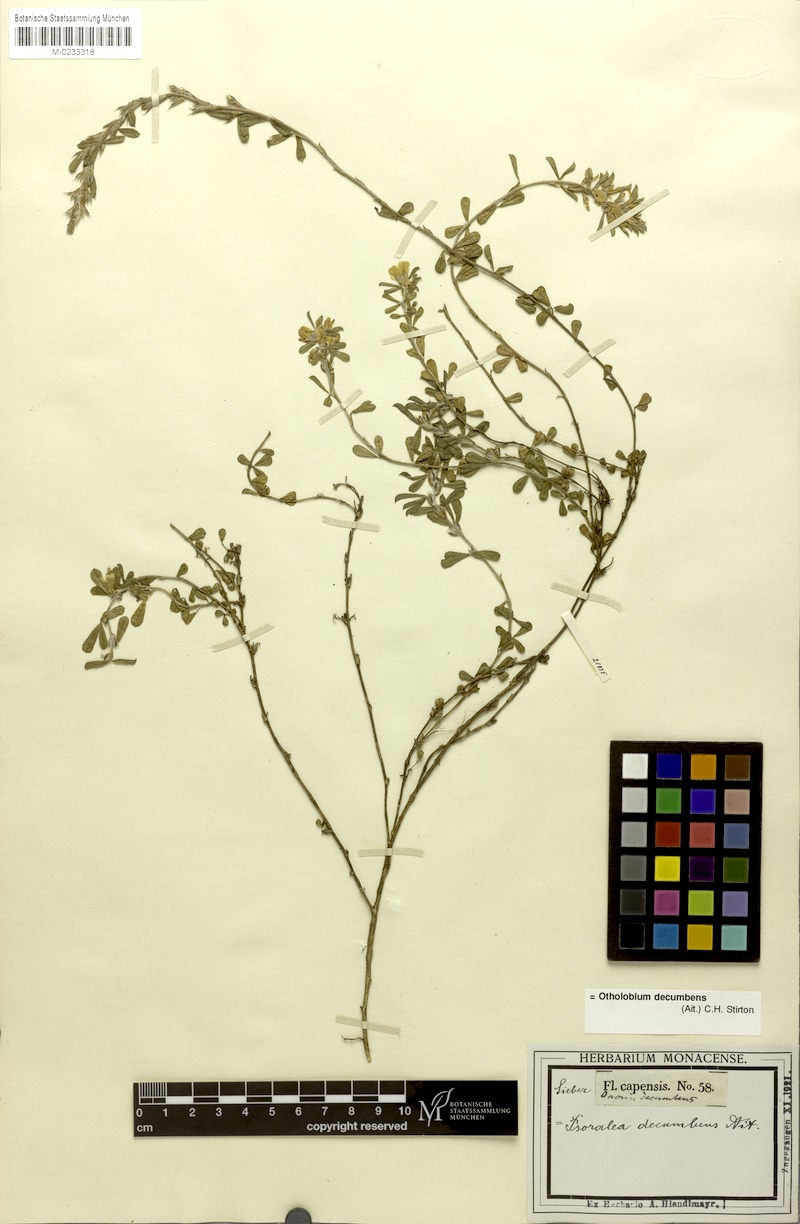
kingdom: Plantae
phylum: Tracheophyta
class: Magnoliopsida
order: Fabales
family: Fabaceae
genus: Psoralea
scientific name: Psoralea Otholobium decumbens
